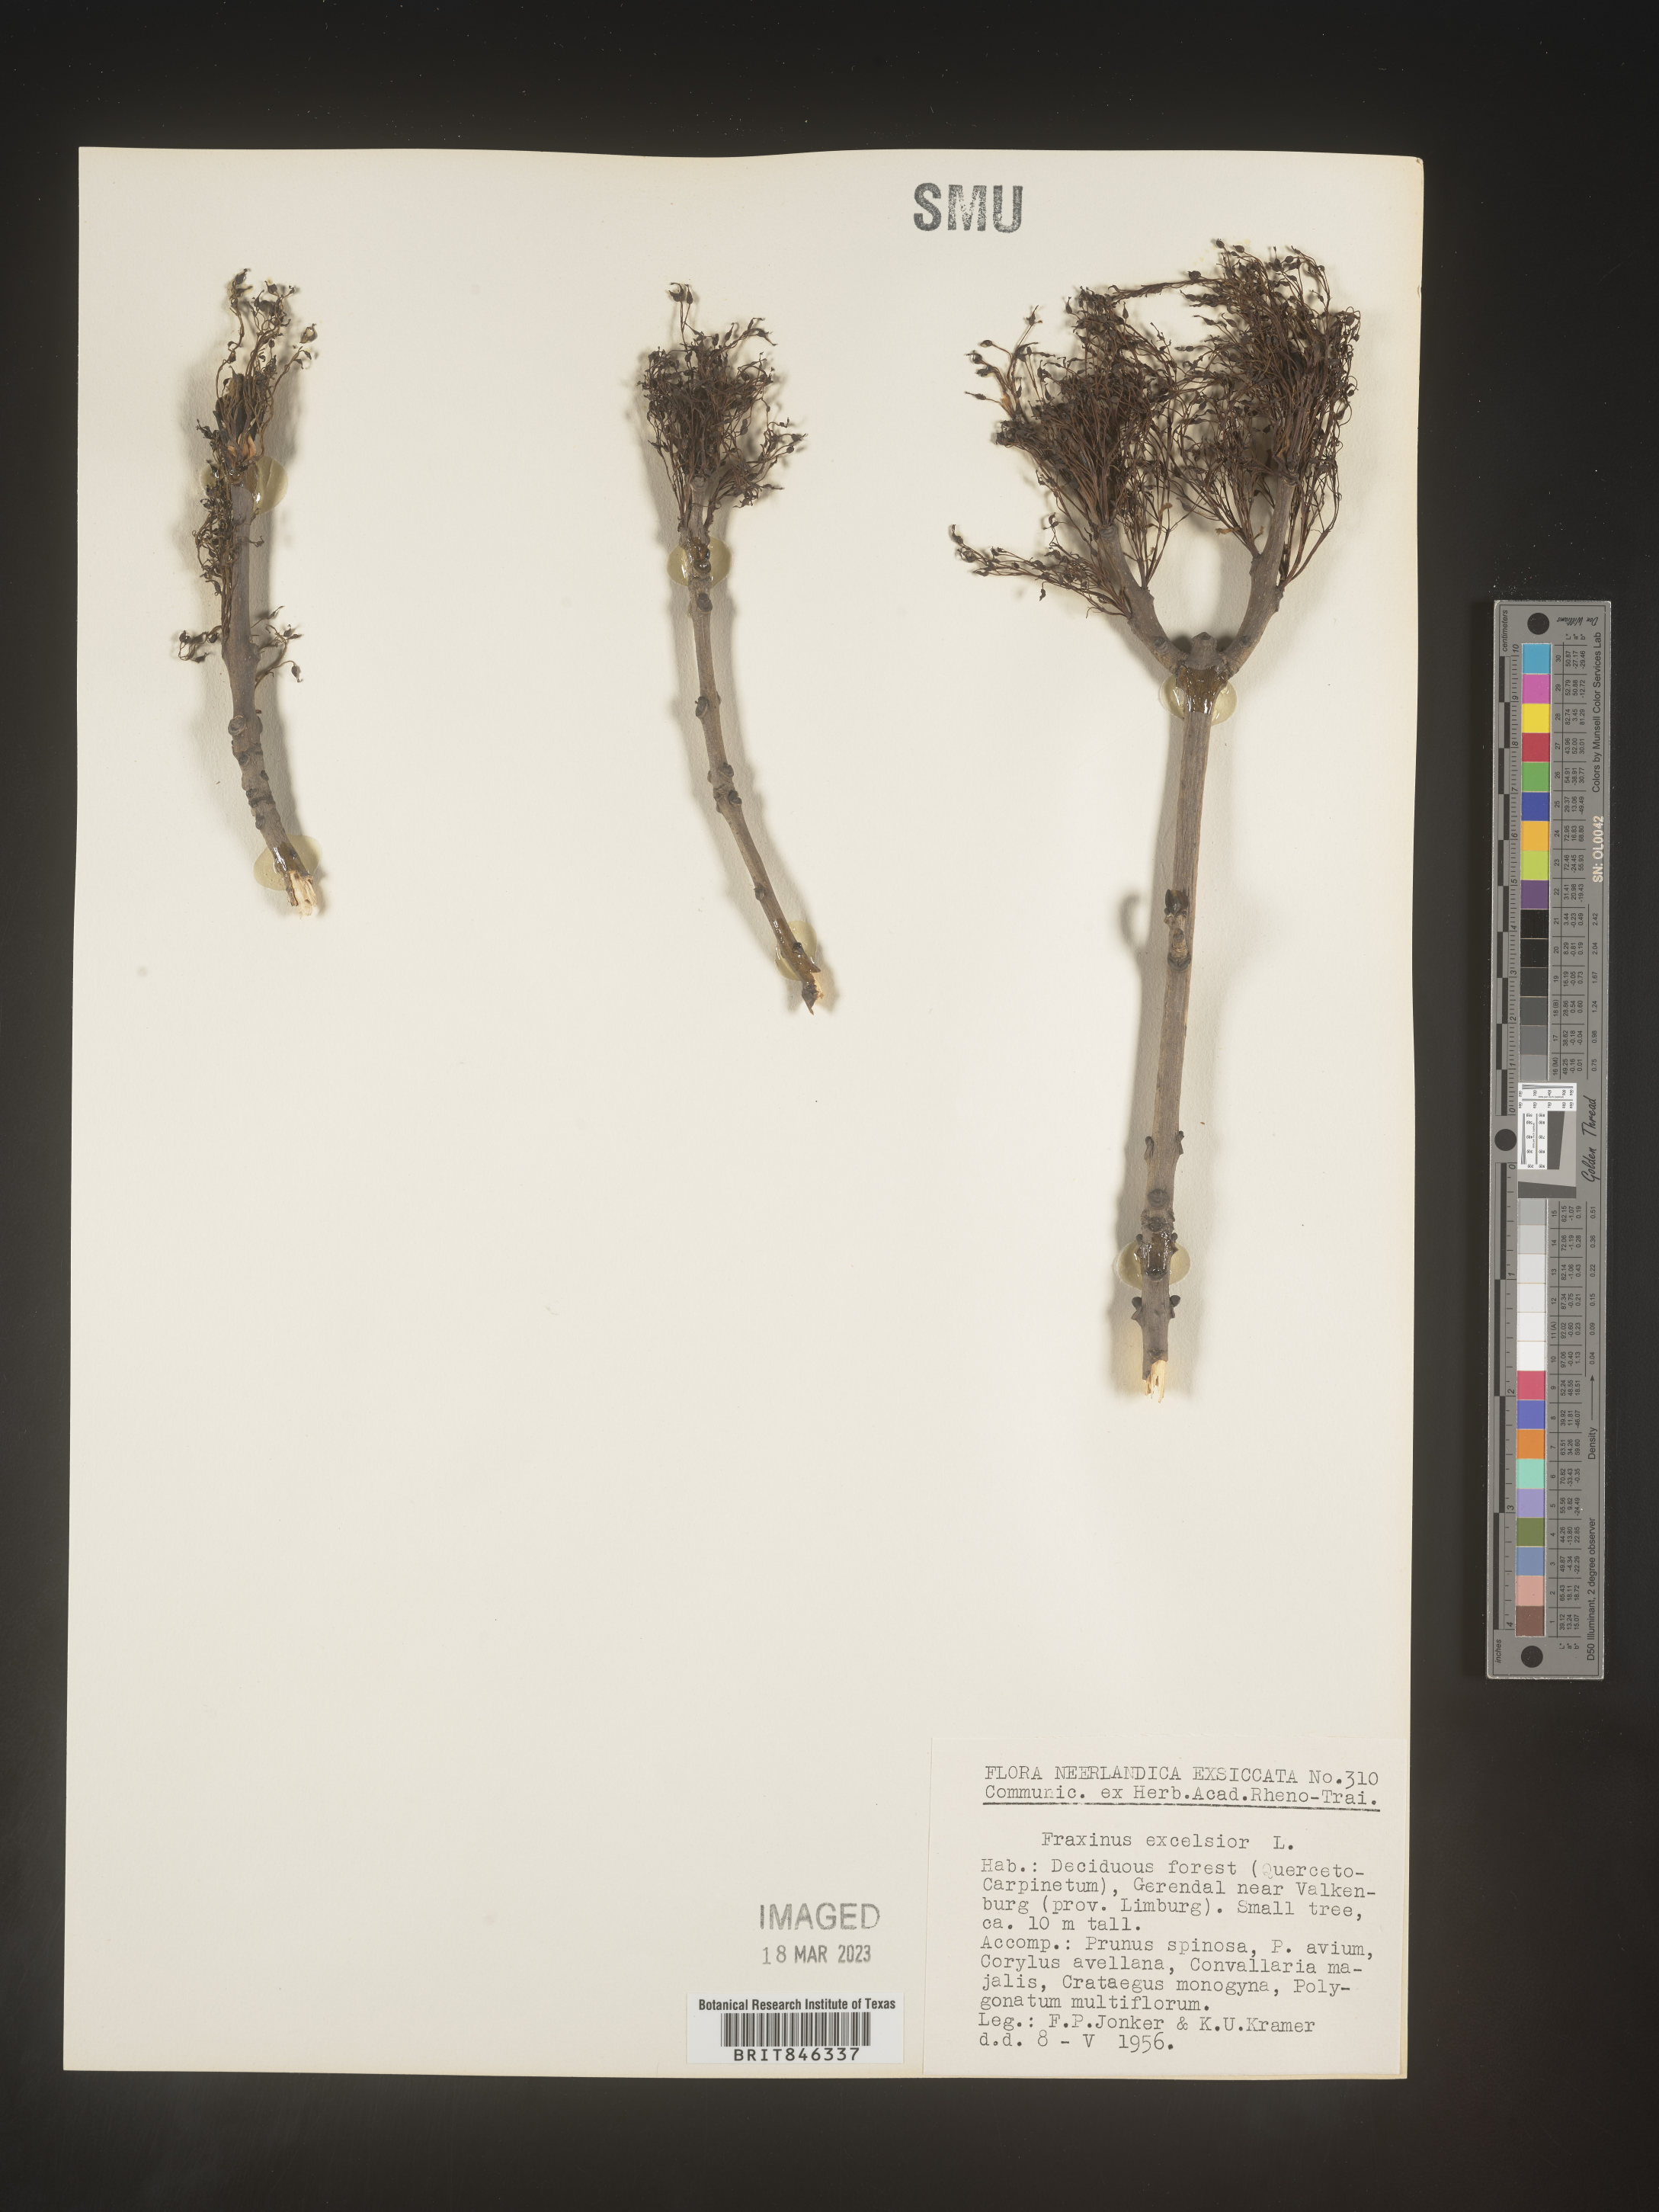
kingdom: Plantae
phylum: Tracheophyta
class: Magnoliopsida
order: Lamiales
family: Oleaceae
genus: Fraxinus
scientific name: Fraxinus
